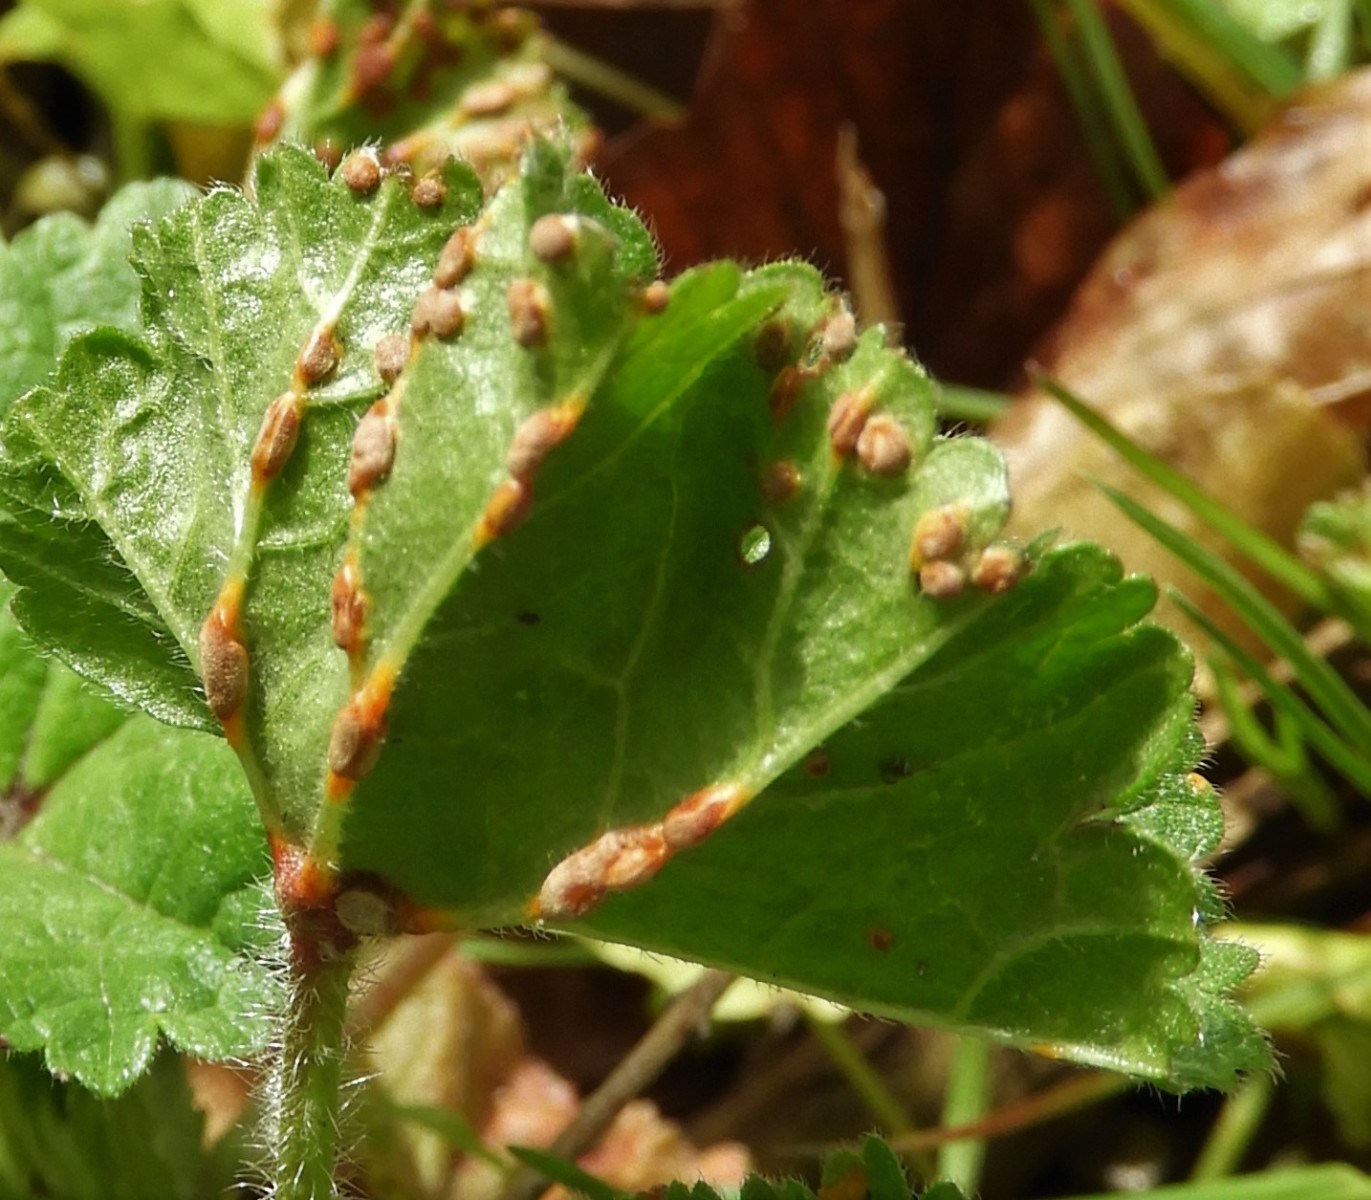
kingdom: Fungi
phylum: Basidiomycota
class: Pucciniomycetes
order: Pucciniales
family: Pucciniaceae
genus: Puccinia
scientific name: Puccinia malvacearum
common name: stokrose-tvecellerust
